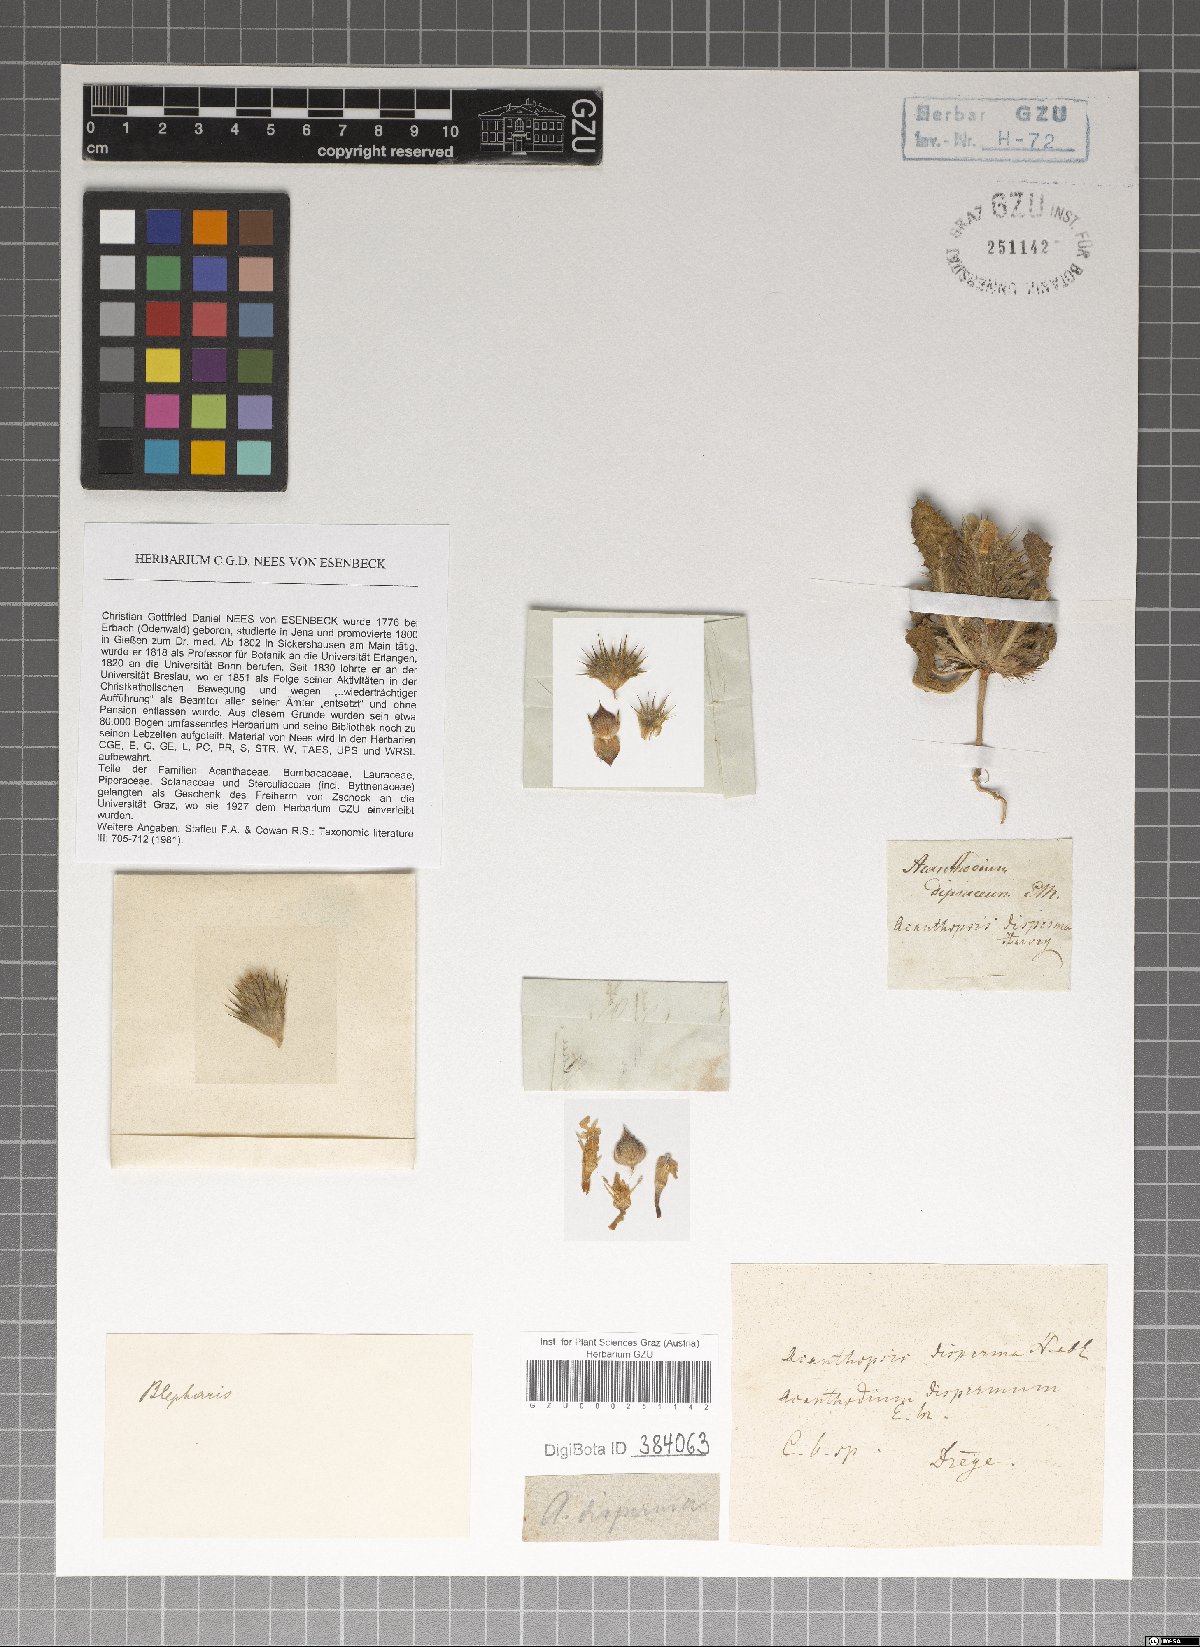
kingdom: Plantae
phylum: Tracheophyta
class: Magnoliopsida
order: Lamiales
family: Acanthaceae
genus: Acanthopsis
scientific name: Acanthopsis disperma
